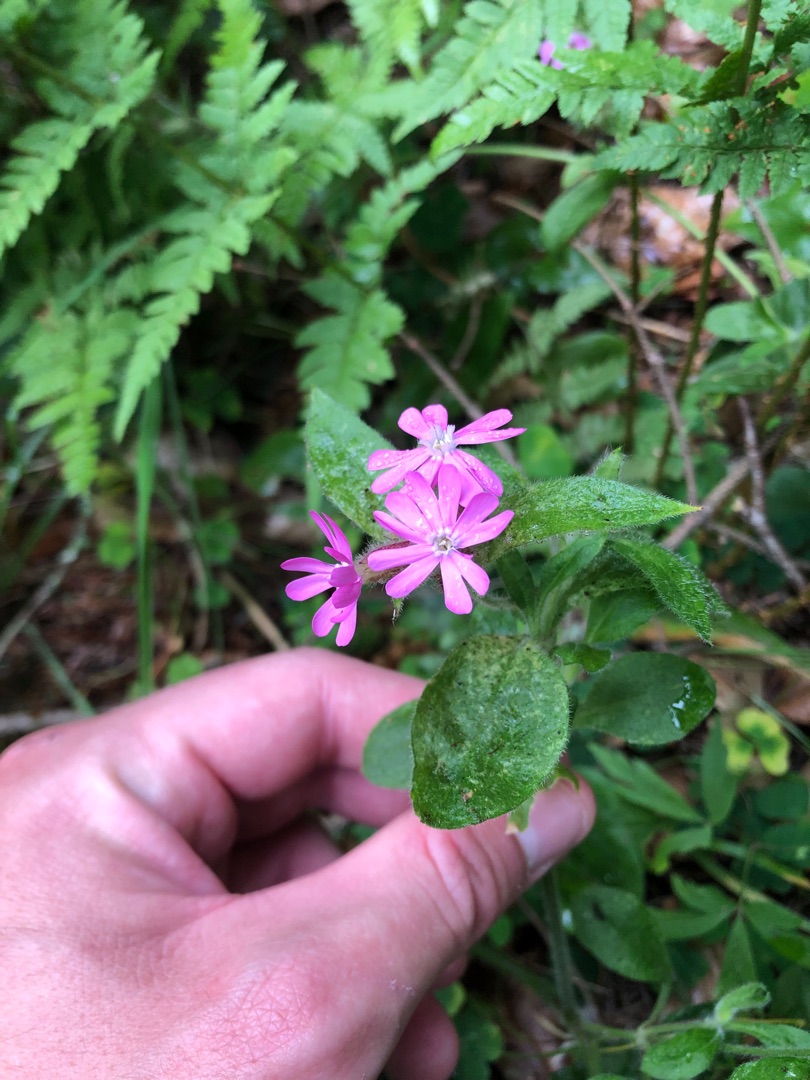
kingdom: Plantae
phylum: Tracheophyta
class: Magnoliopsida
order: Caryophyllales
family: Caryophyllaceae
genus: Silene
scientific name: Silene dioica
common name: Dagpragtstjerne
